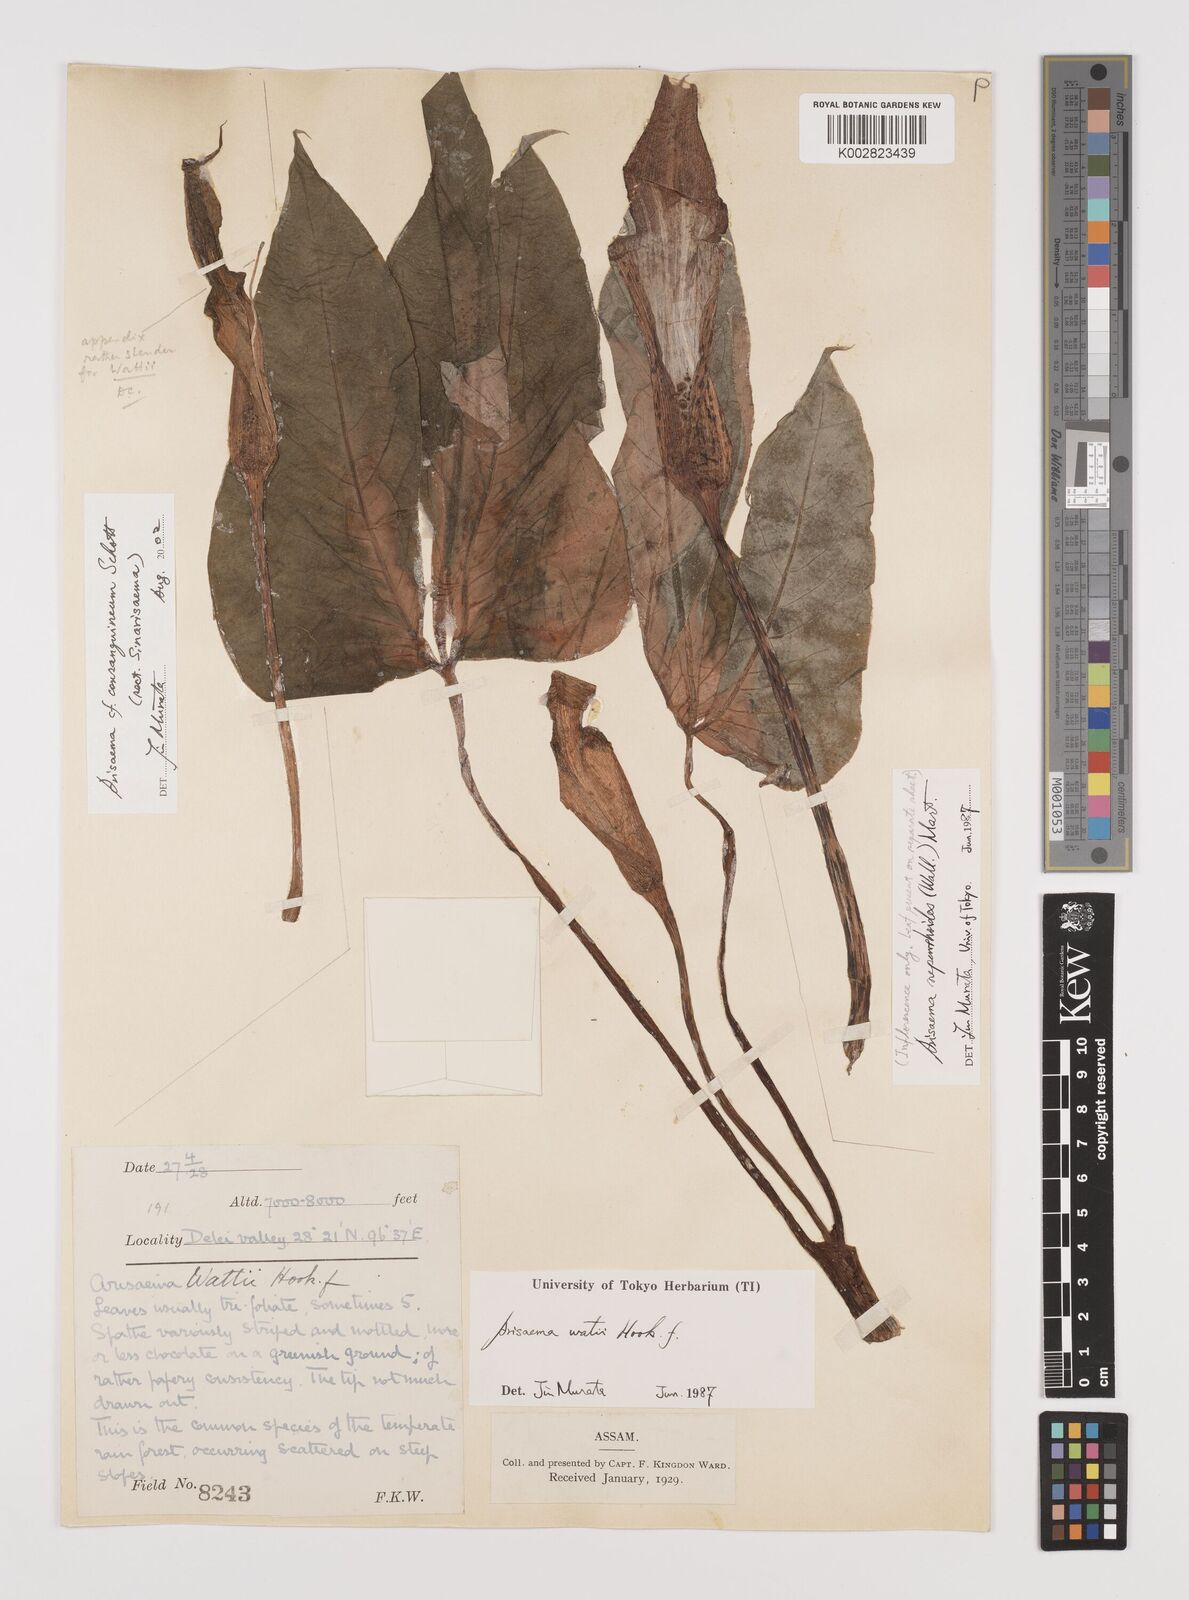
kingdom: Plantae
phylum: Tracheophyta
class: Liliopsida
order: Alismatales
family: Araceae
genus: Arisaema
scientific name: Arisaema wattii
